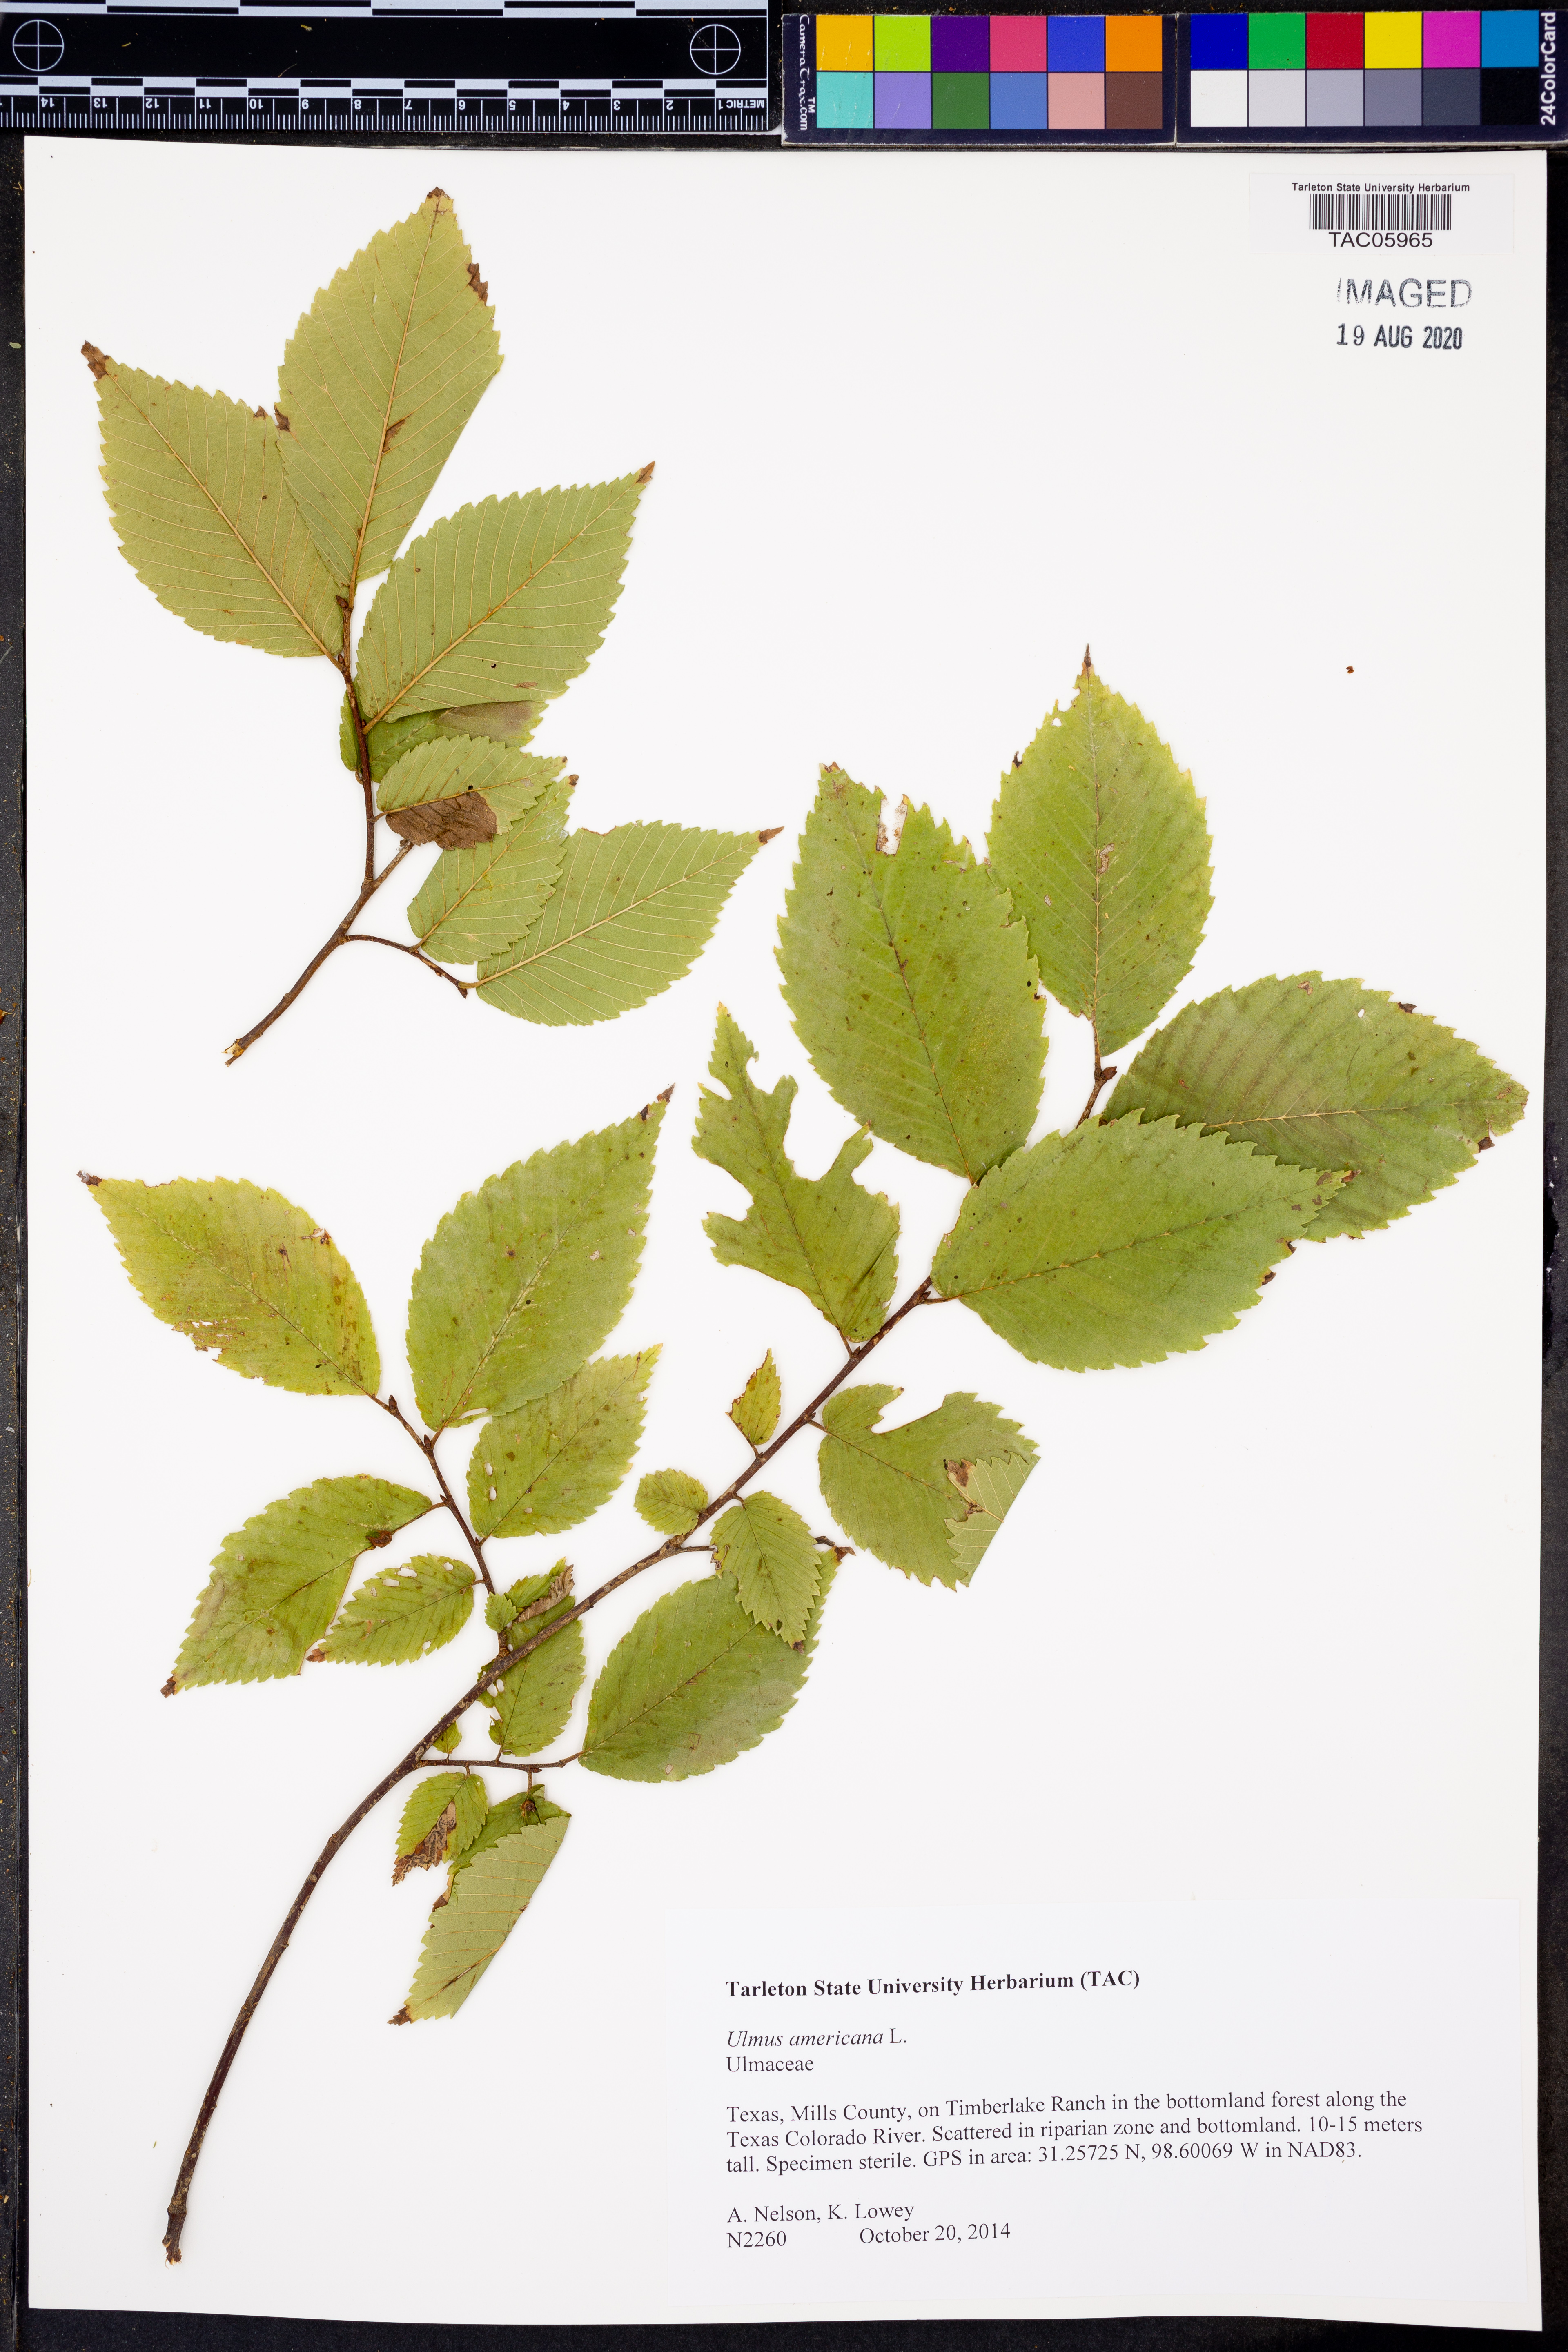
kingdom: Plantae
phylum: Tracheophyta
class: Magnoliopsida
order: Rosales
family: Ulmaceae
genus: Ulmus
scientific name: Ulmus americana
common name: American elm
